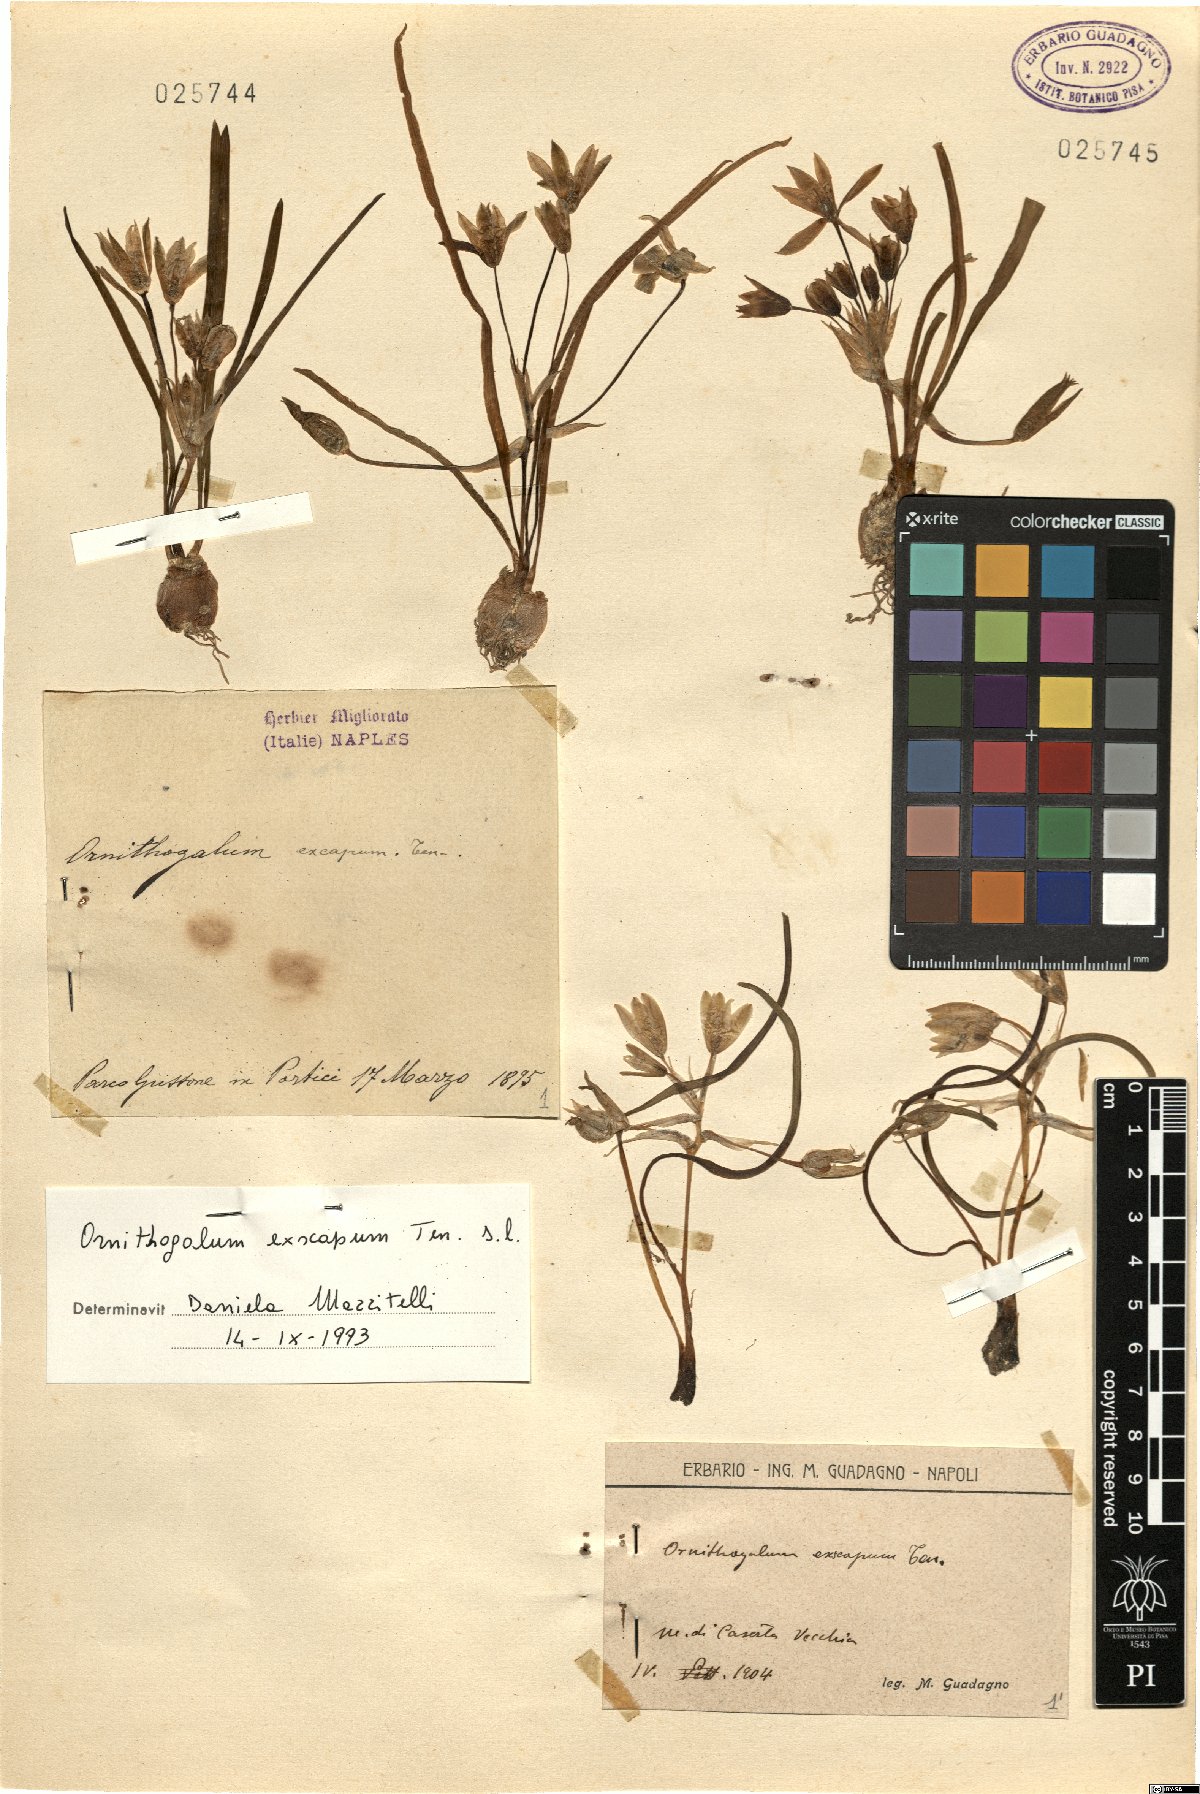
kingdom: Plantae
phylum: Tracheophyta
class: Liliopsida
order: Asparagales
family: Asparagaceae
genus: Ornithogalum
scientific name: Ornithogalum exscapum
